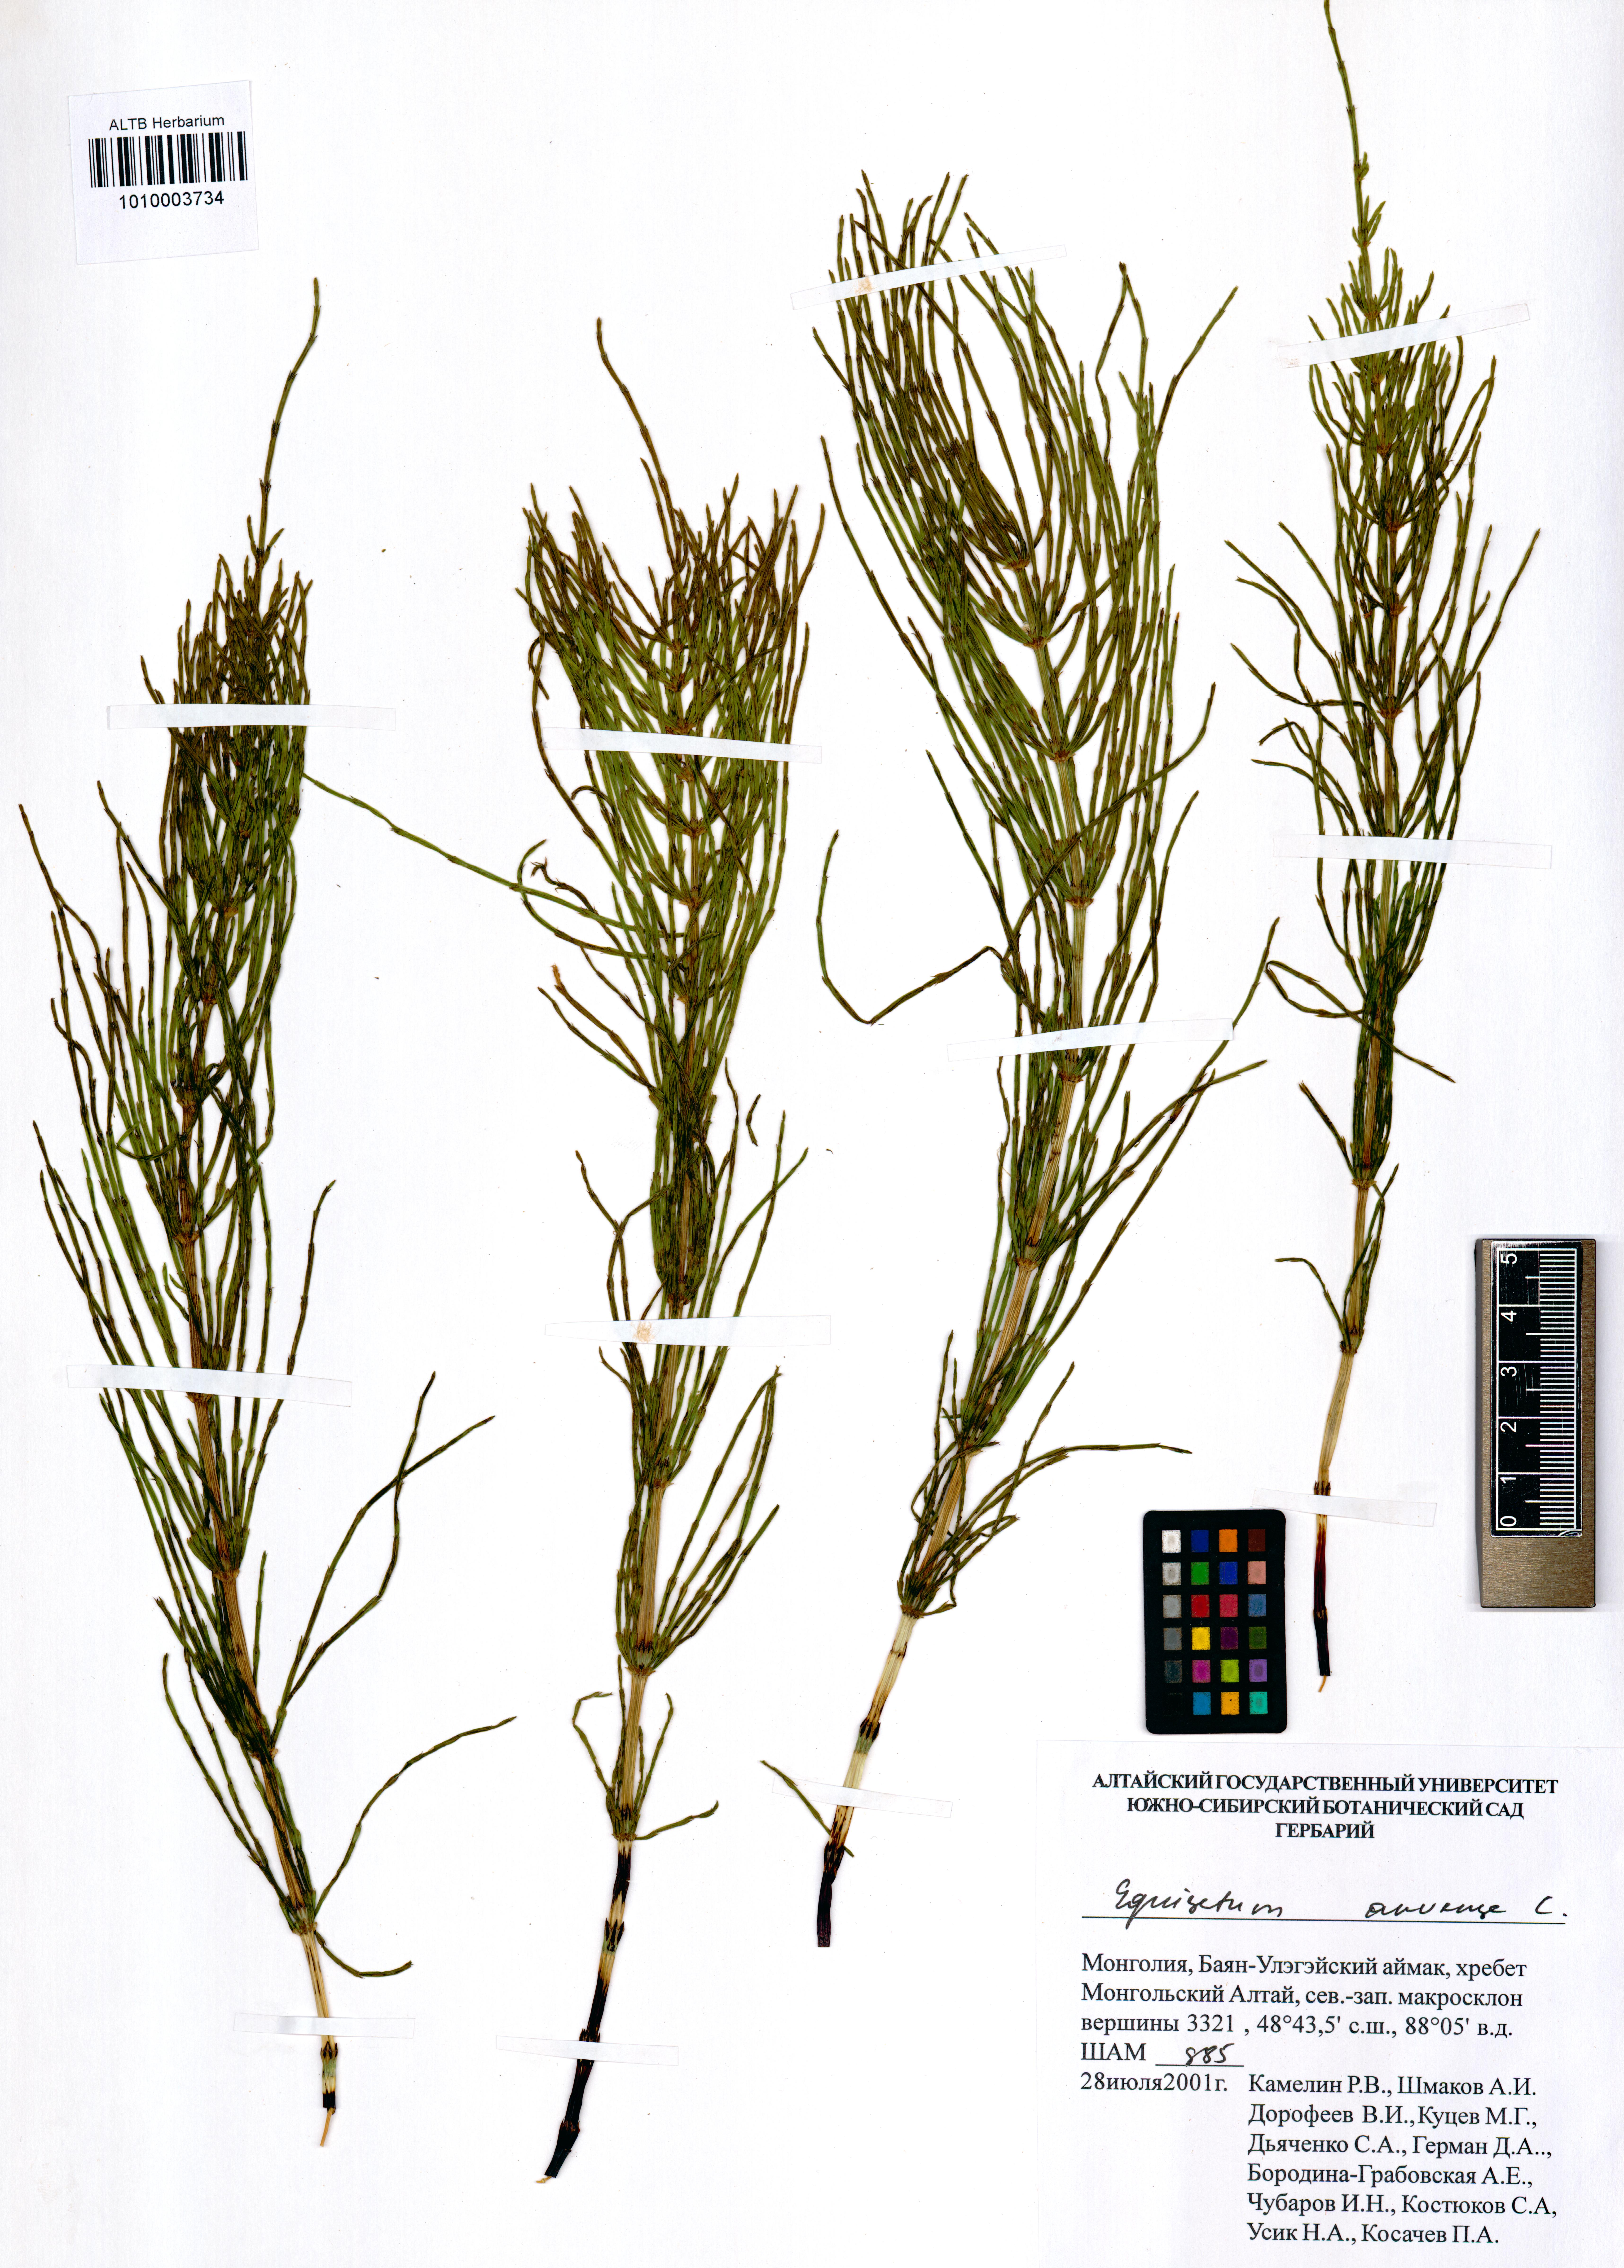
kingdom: Plantae
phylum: Tracheophyta
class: Polypodiopsida
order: Equisetales
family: Equisetaceae
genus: Equisetum
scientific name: Equisetum arvense
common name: Field horsetail
